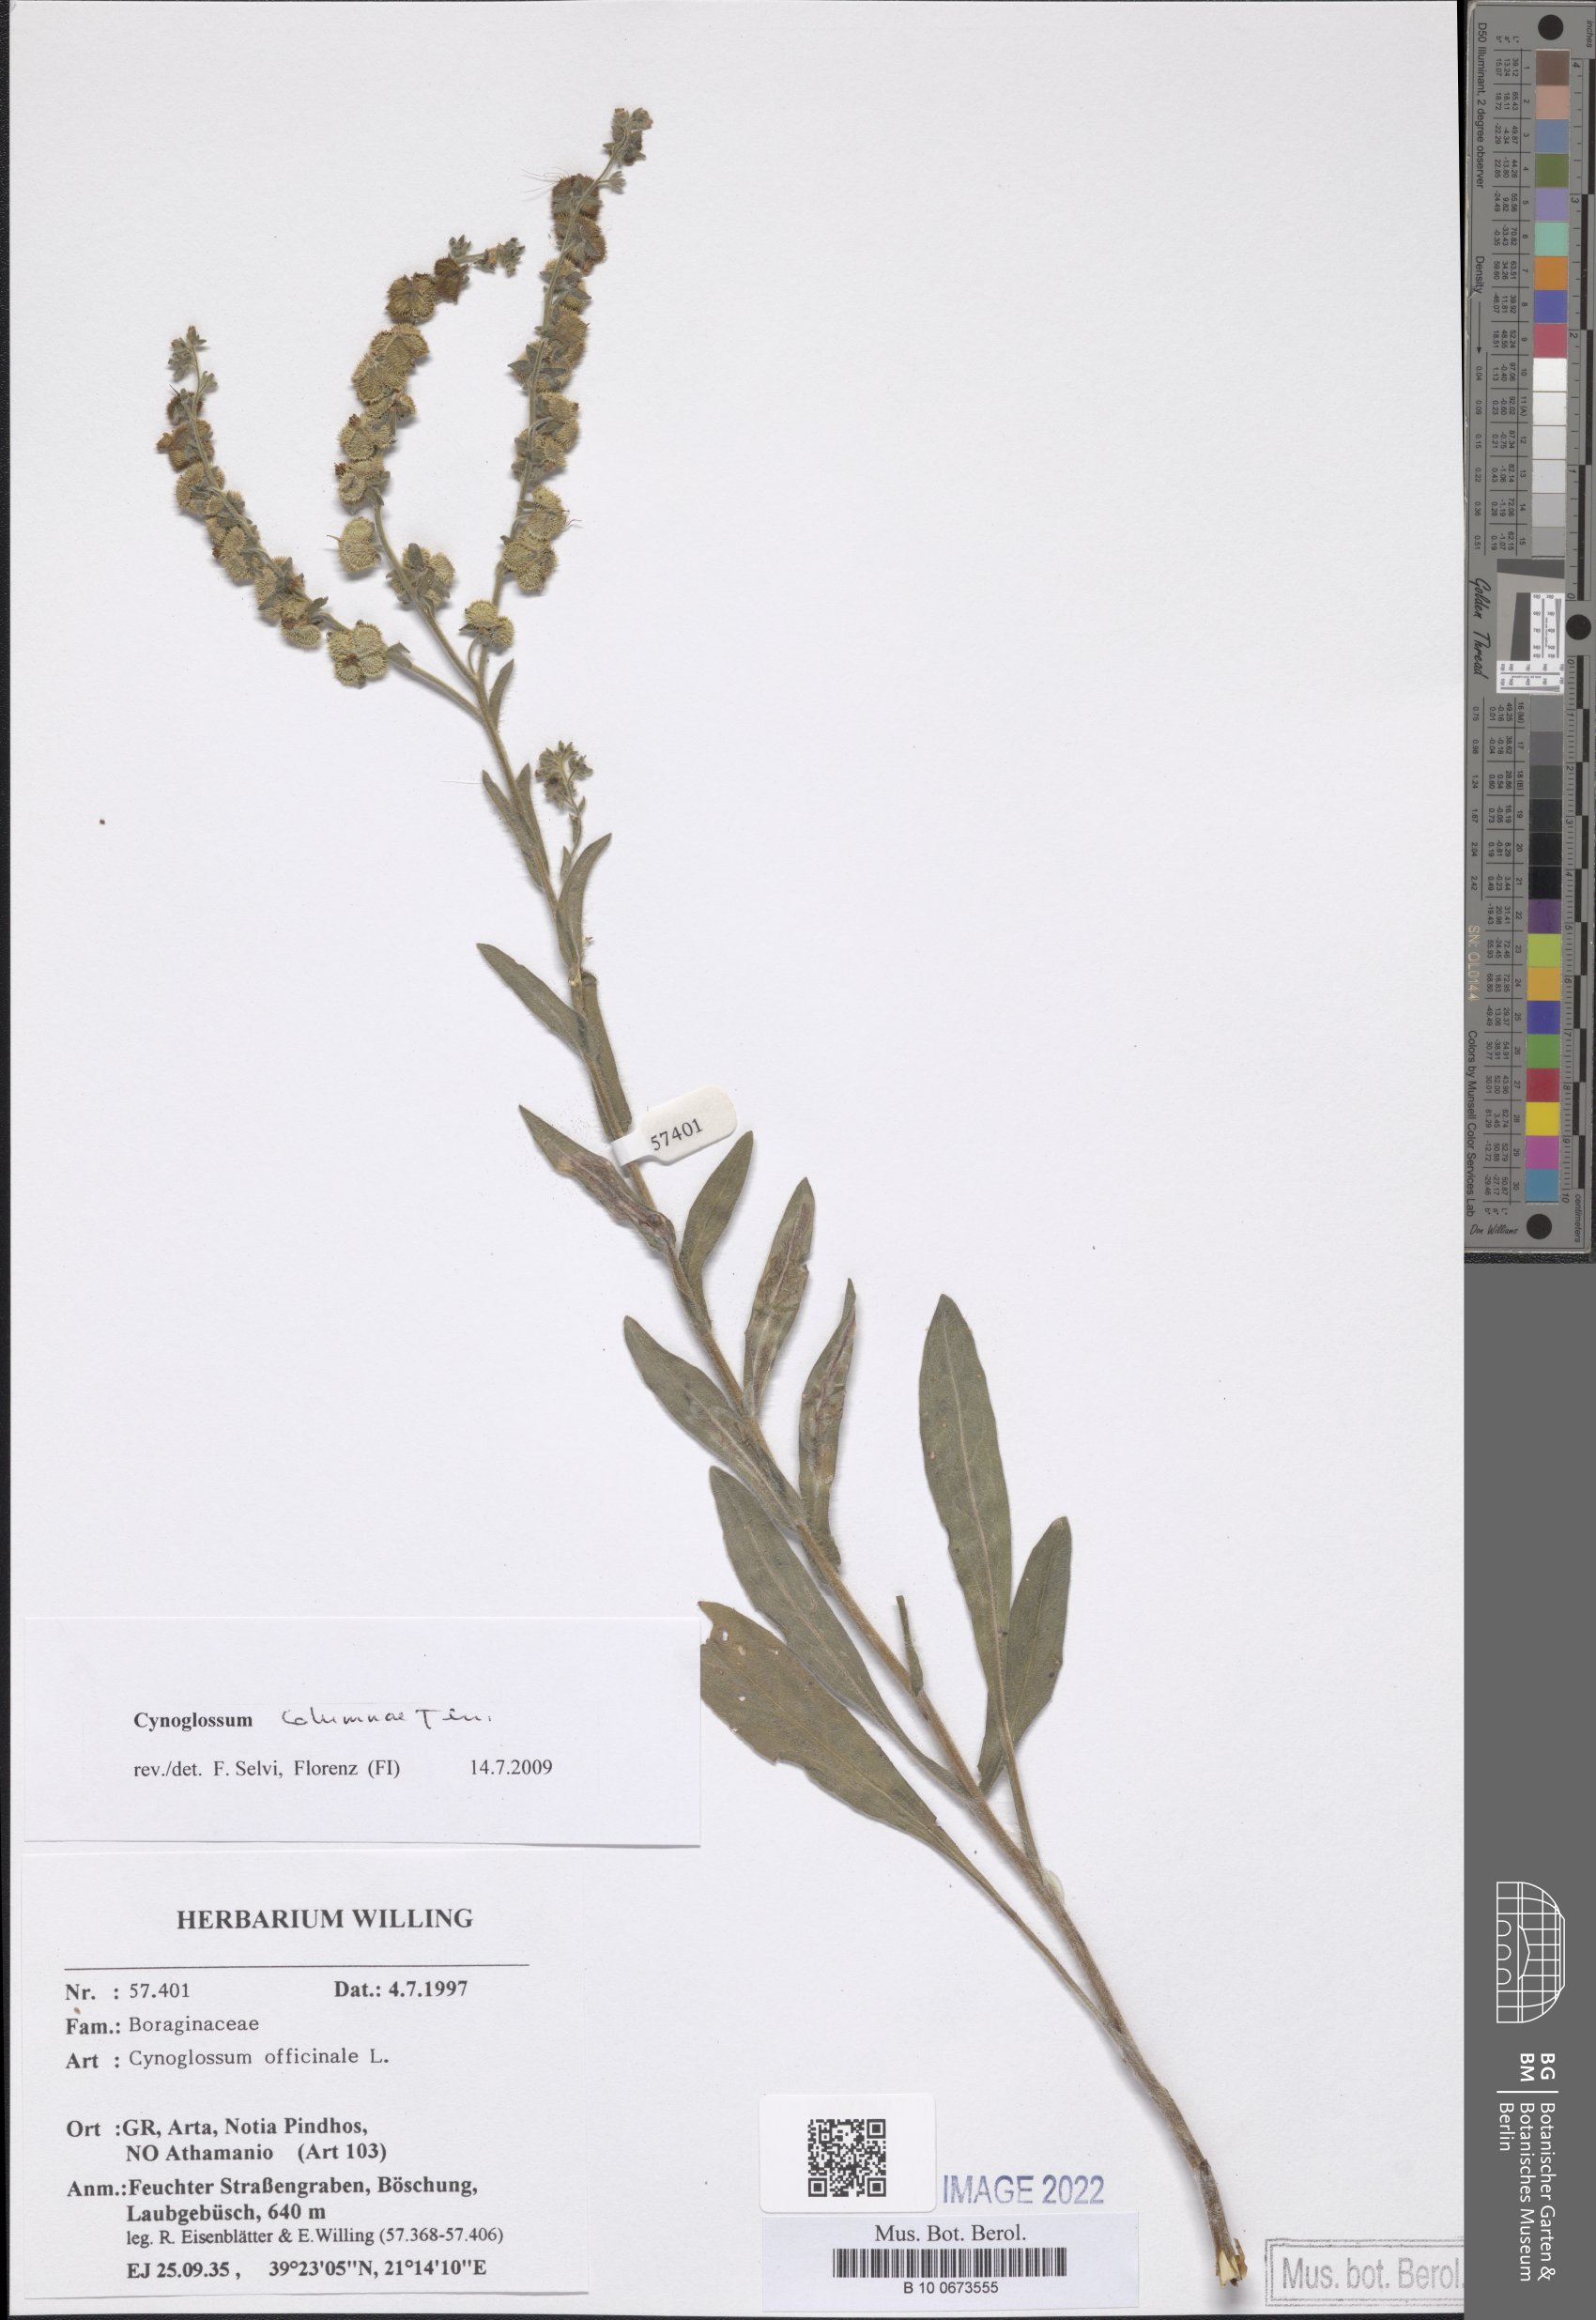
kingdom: Plantae
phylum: Tracheophyta
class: Magnoliopsida
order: Boraginales
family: Boraginaceae
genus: Rindera
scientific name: Rindera columnae
